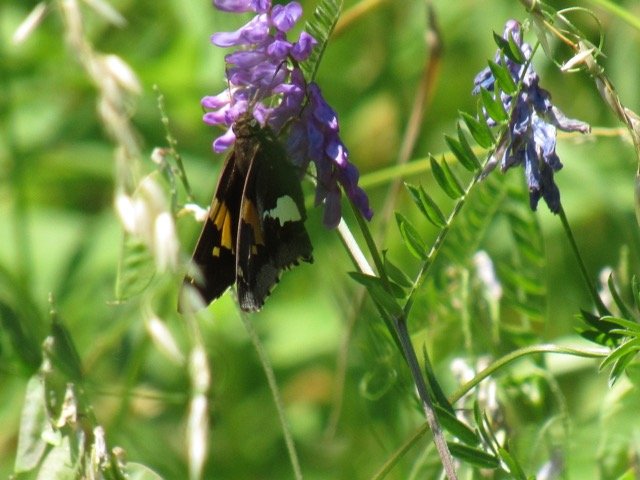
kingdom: Animalia
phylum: Arthropoda
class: Insecta
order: Lepidoptera
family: Hesperiidae
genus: Epargyreus
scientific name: Epargyreus clarus
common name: Silver-spotted Skipper
